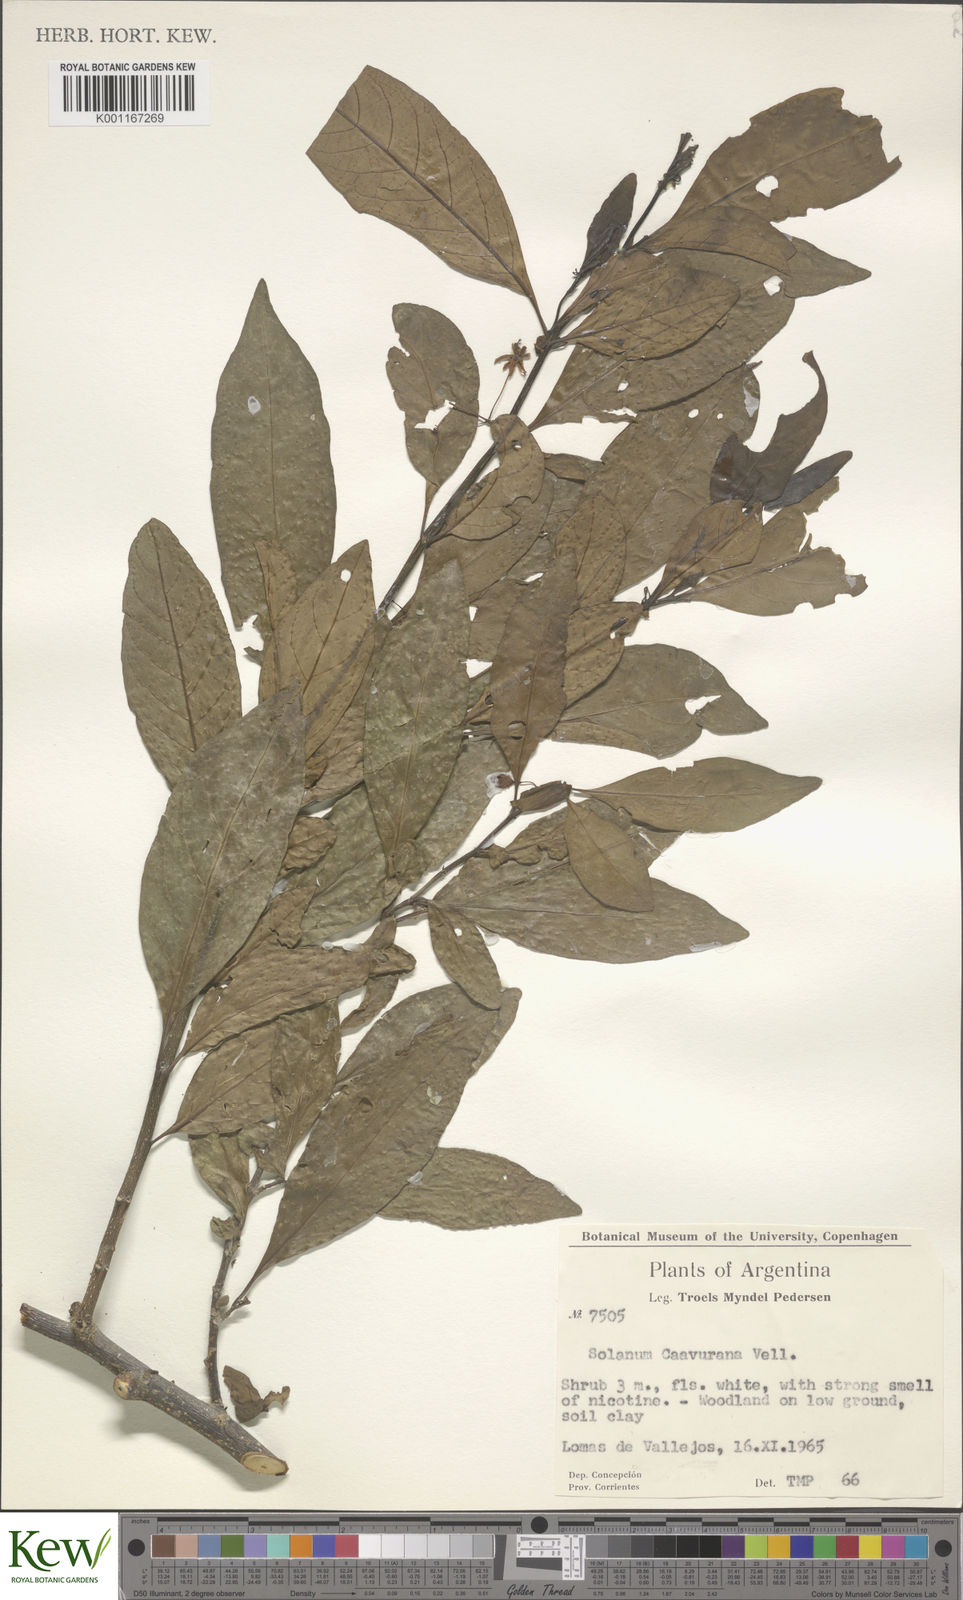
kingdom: Plantae
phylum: Tracheophyta
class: Magnoliopsida
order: Solanales
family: Solanaceae
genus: Solanum
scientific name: Solanum caavurana
